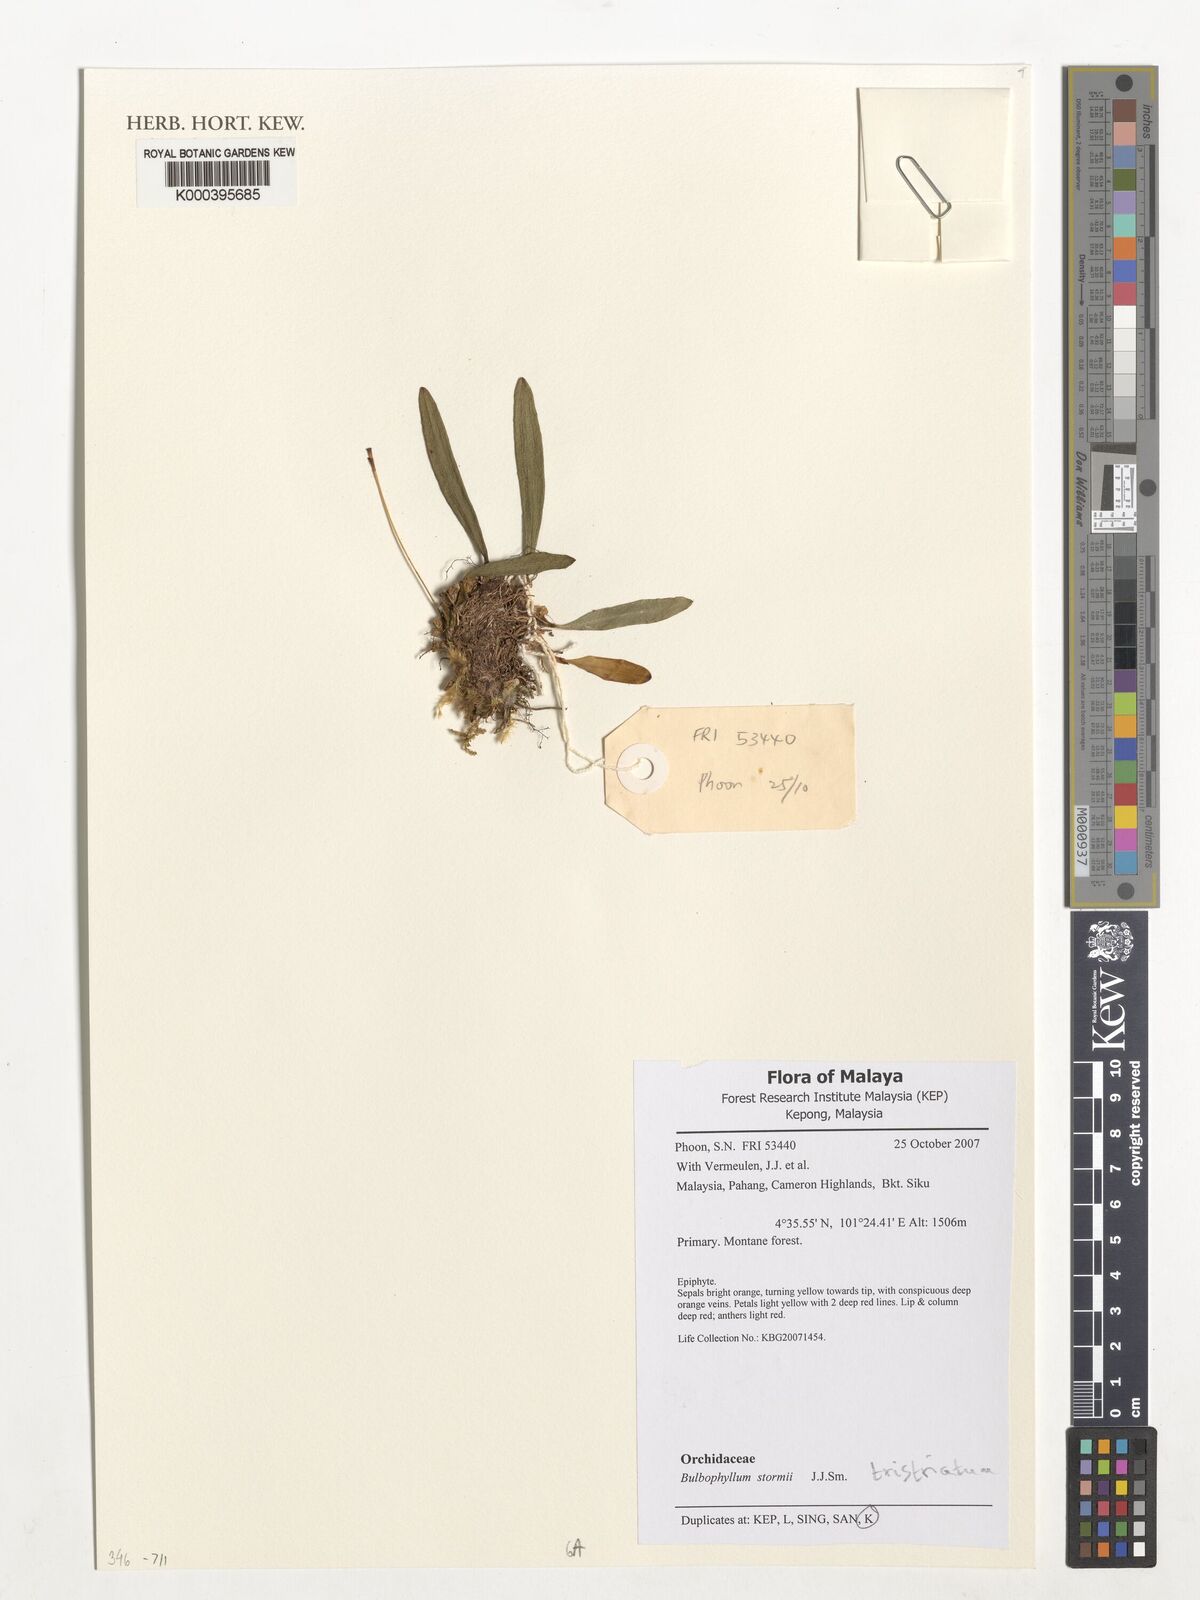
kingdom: Plantae
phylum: Tracheophyta
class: Liliopsida
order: Asparagales
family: Orchidaceae
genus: Bulbophyllum
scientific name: Bulbophyllum stormii
